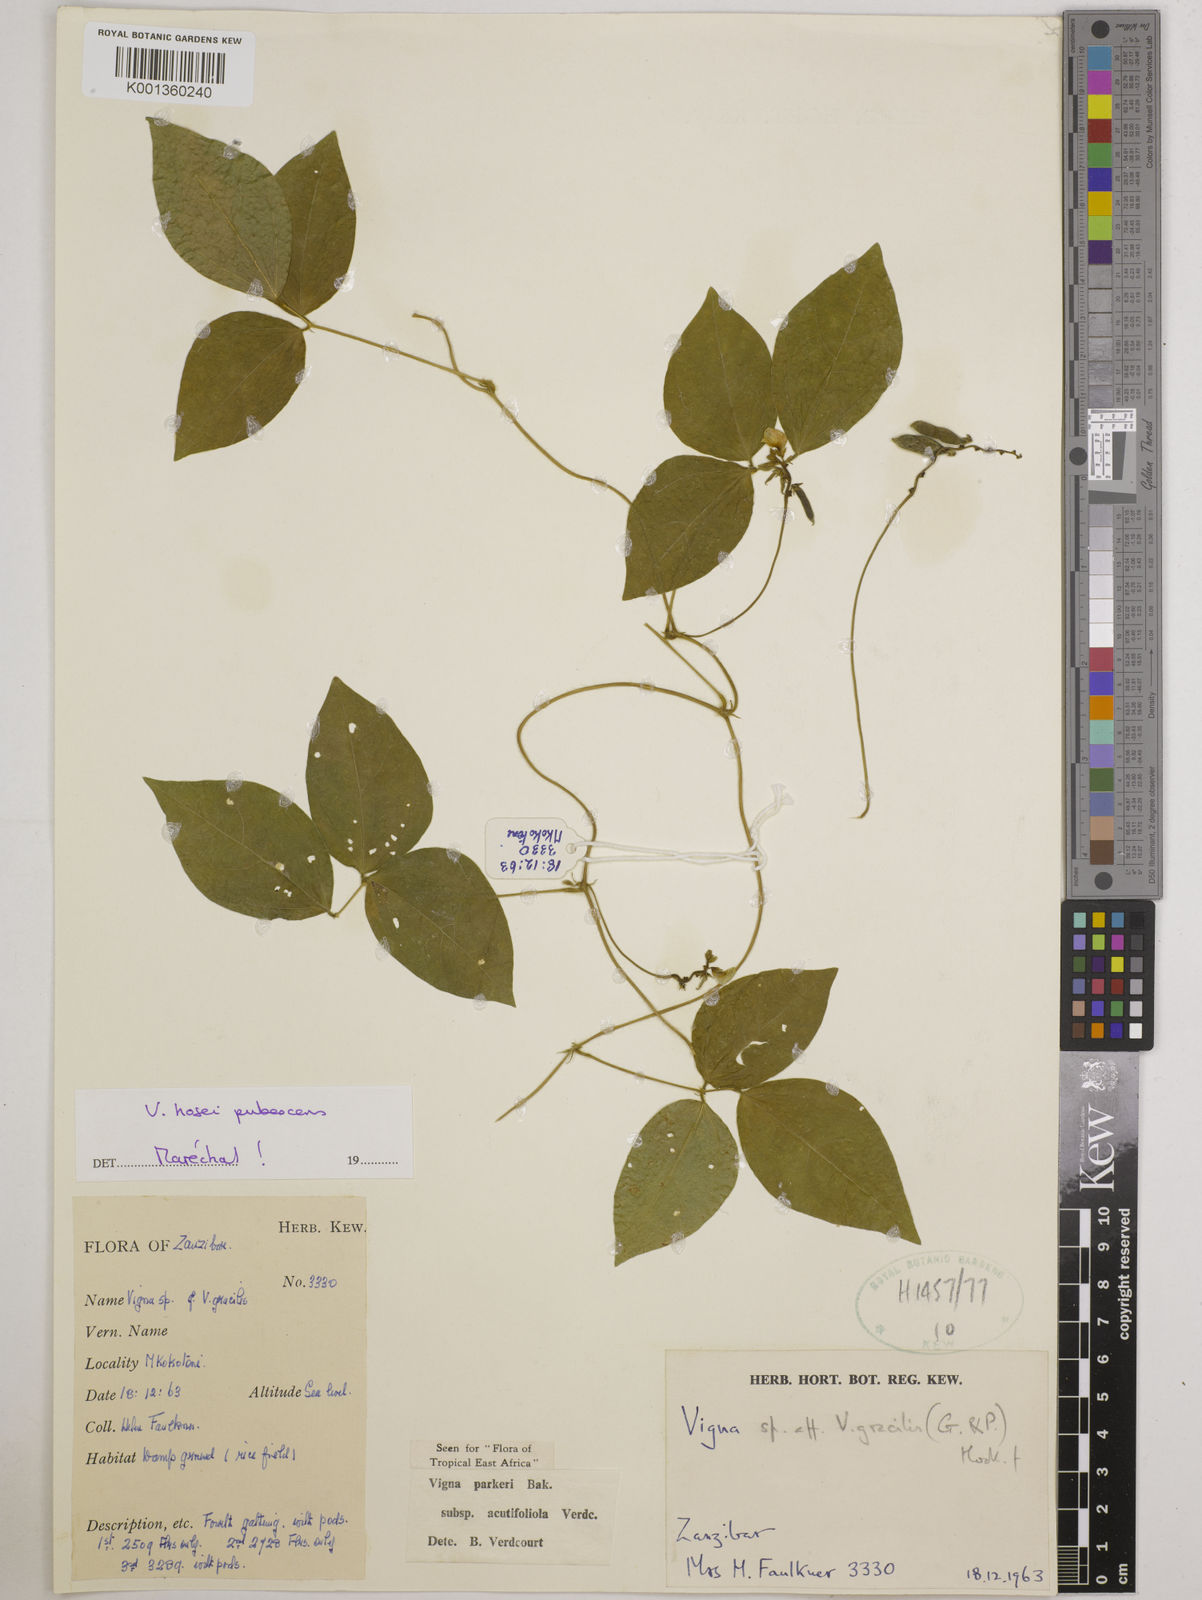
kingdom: Plantae
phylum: Tracheophyta
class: Magnoliopsida
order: Fabales
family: Fabaceae
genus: Vigna
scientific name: Vigna
